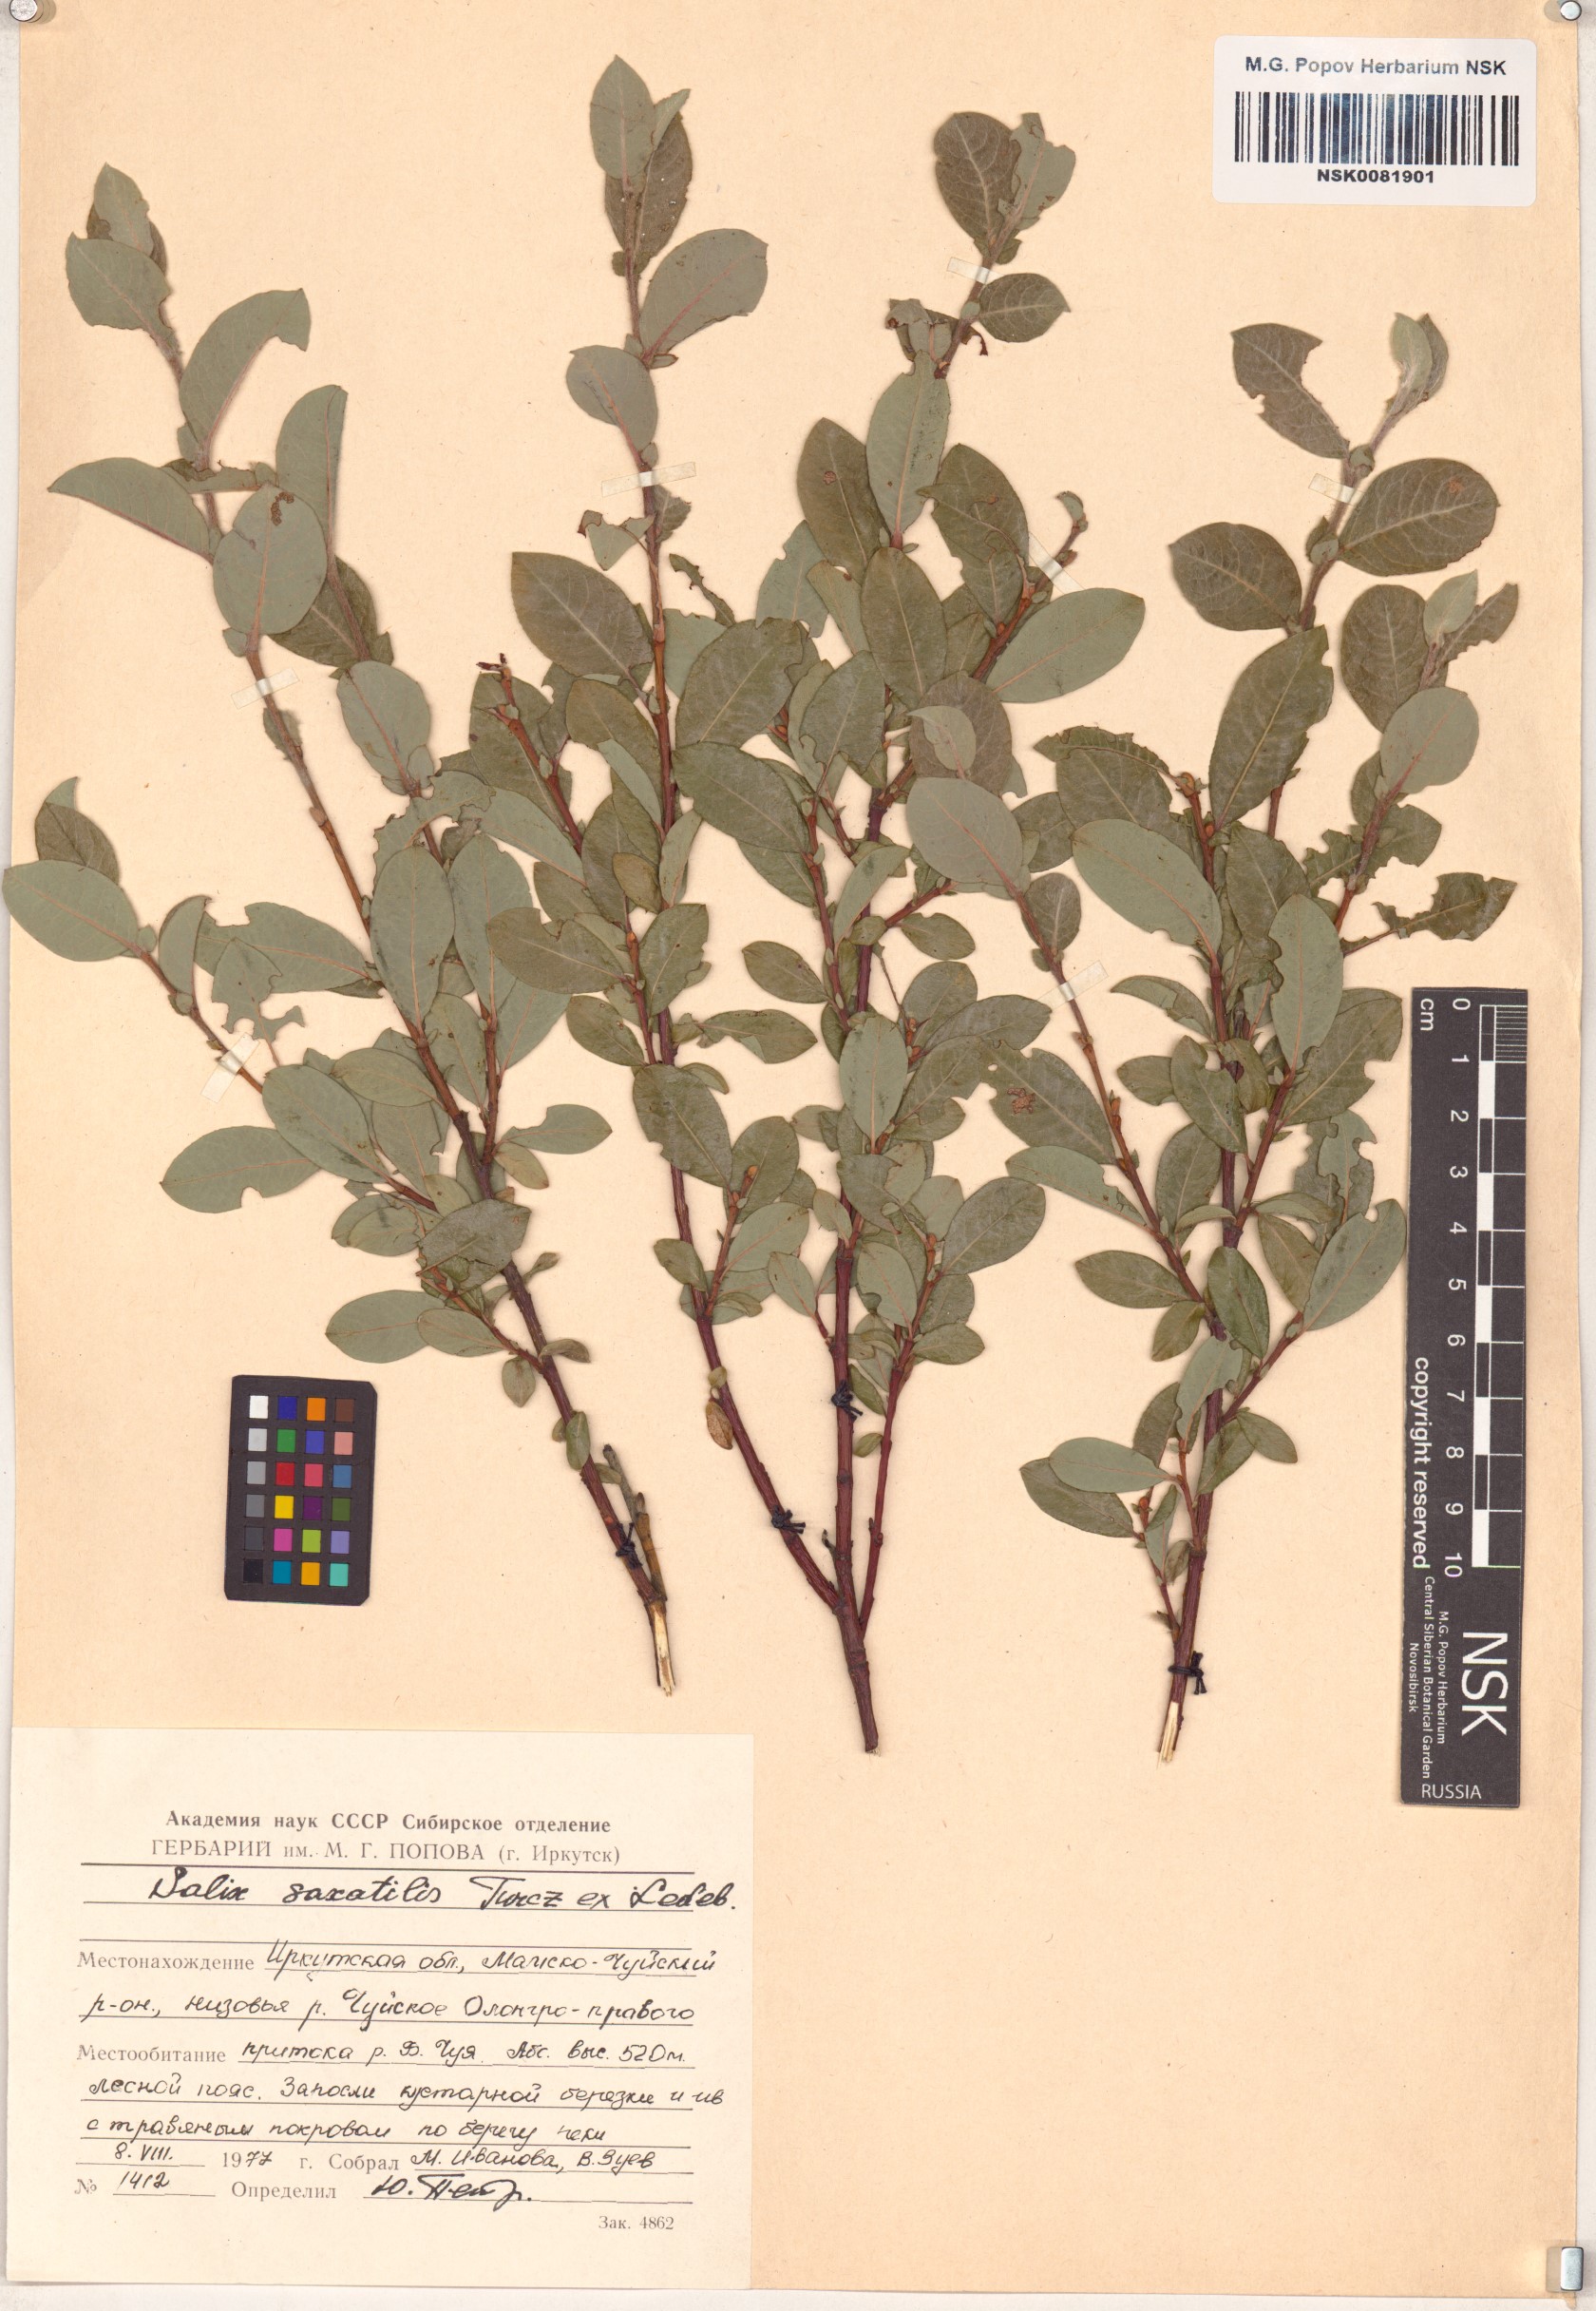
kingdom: Plantae
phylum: Tracheophyta
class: Magnoliopsida
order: Malpighiales
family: Salicaceae
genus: Salix
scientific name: Salix saxatilis
